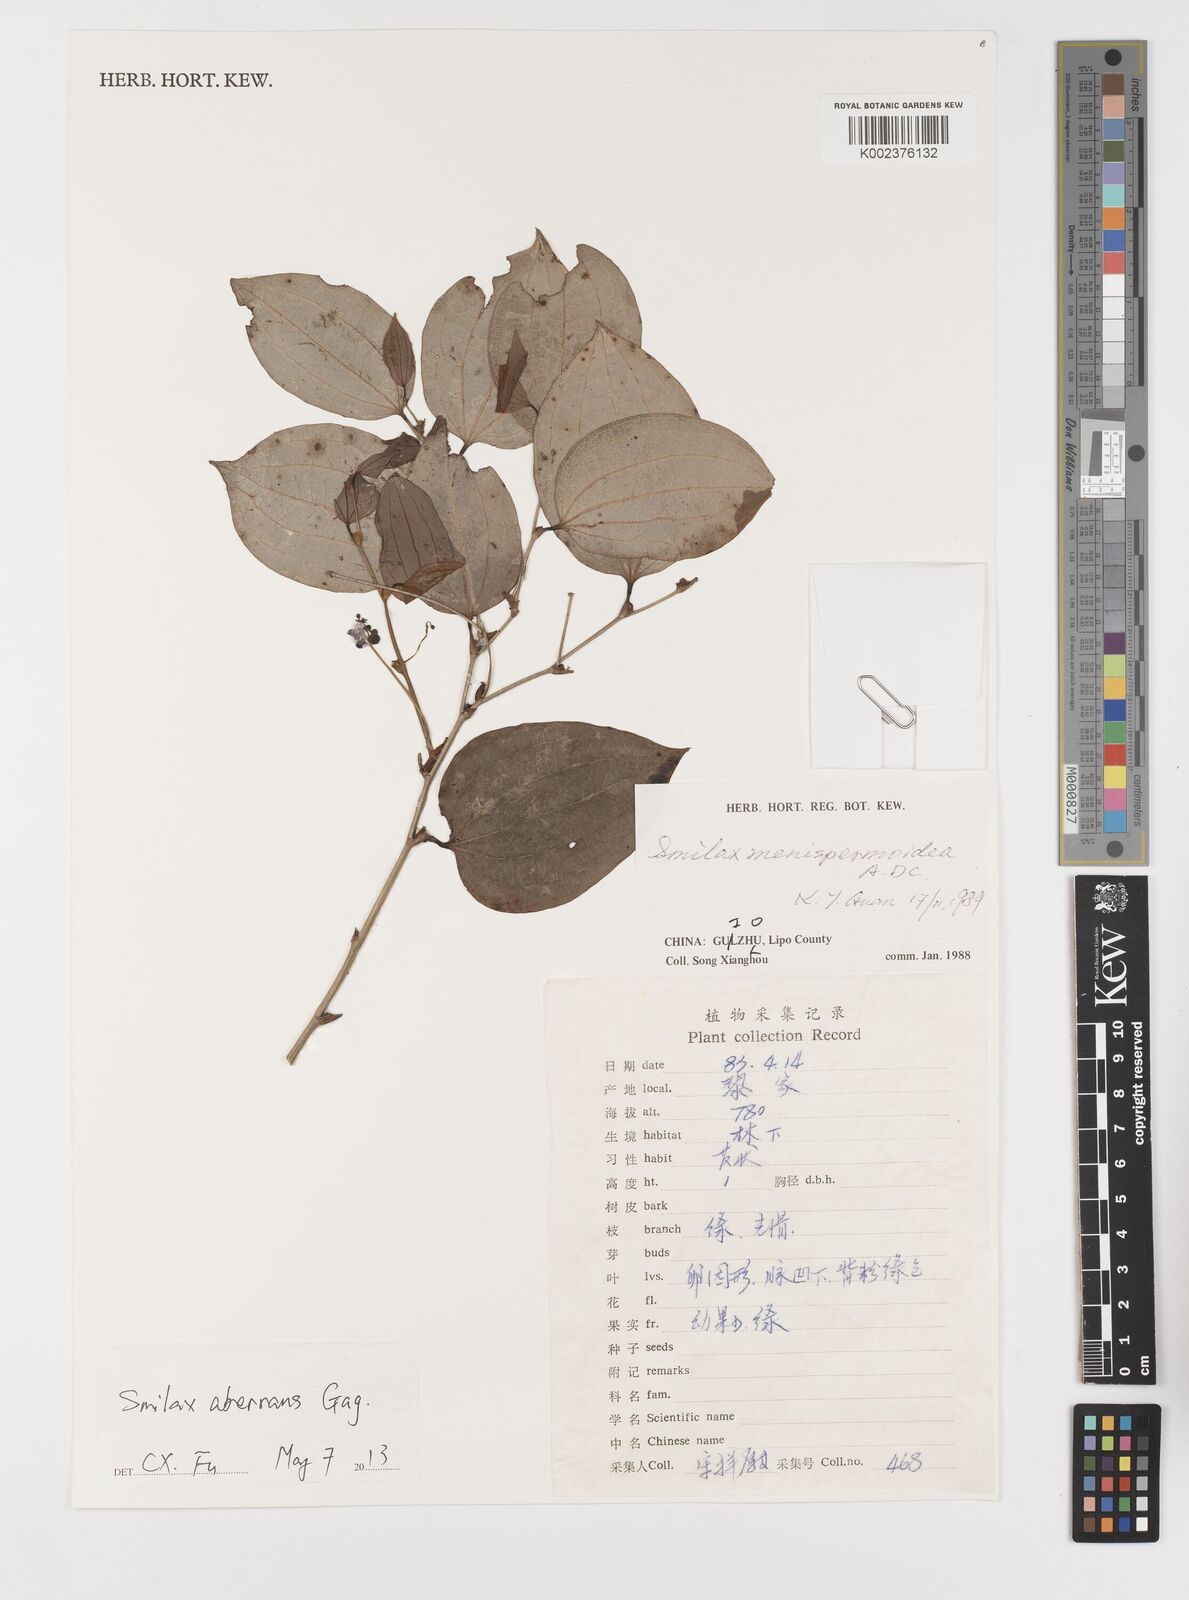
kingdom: Plantae
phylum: Tracheophyta
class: Liliopsida
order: Liliales
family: Smilacaceae
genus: Smilax
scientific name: Smilax aberrans
